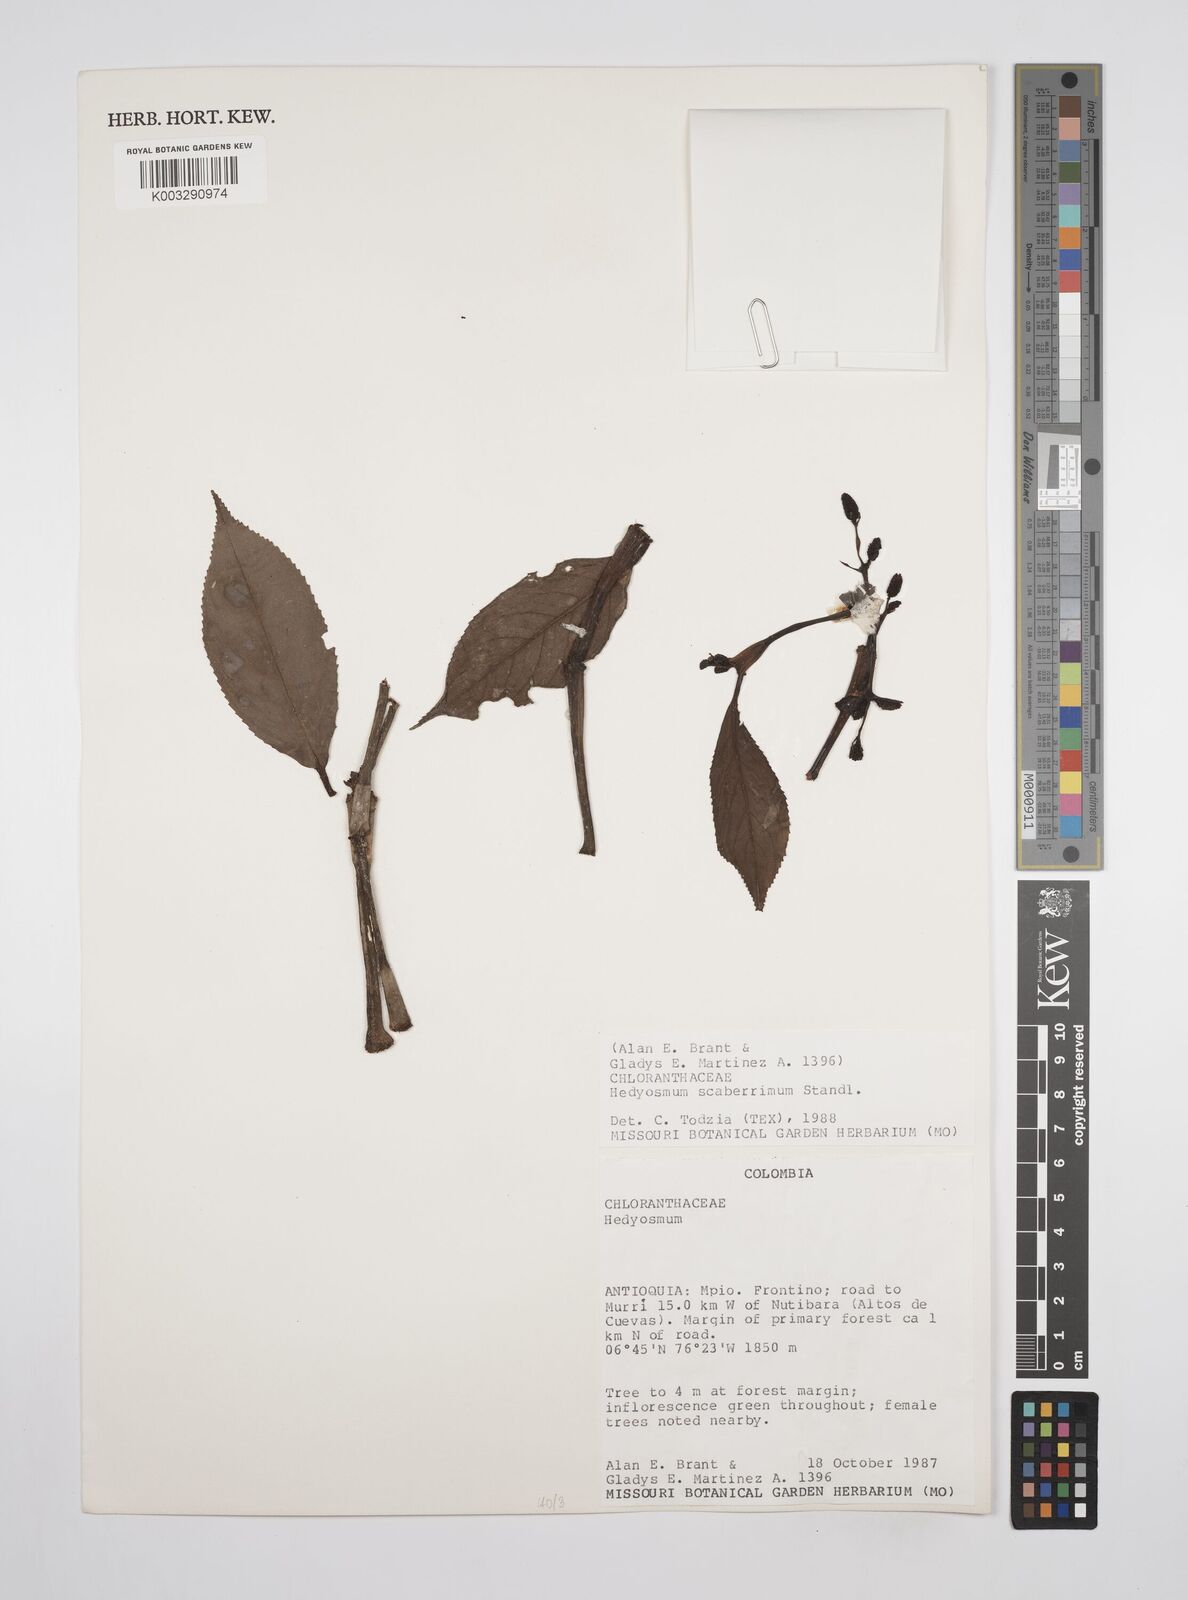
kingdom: Plantae
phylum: Tracheophyta
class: Magnoliopsida
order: Chloranthales
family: Chloranthaceae
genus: Hedyosmum
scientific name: Hedyosmum scaberrimum
